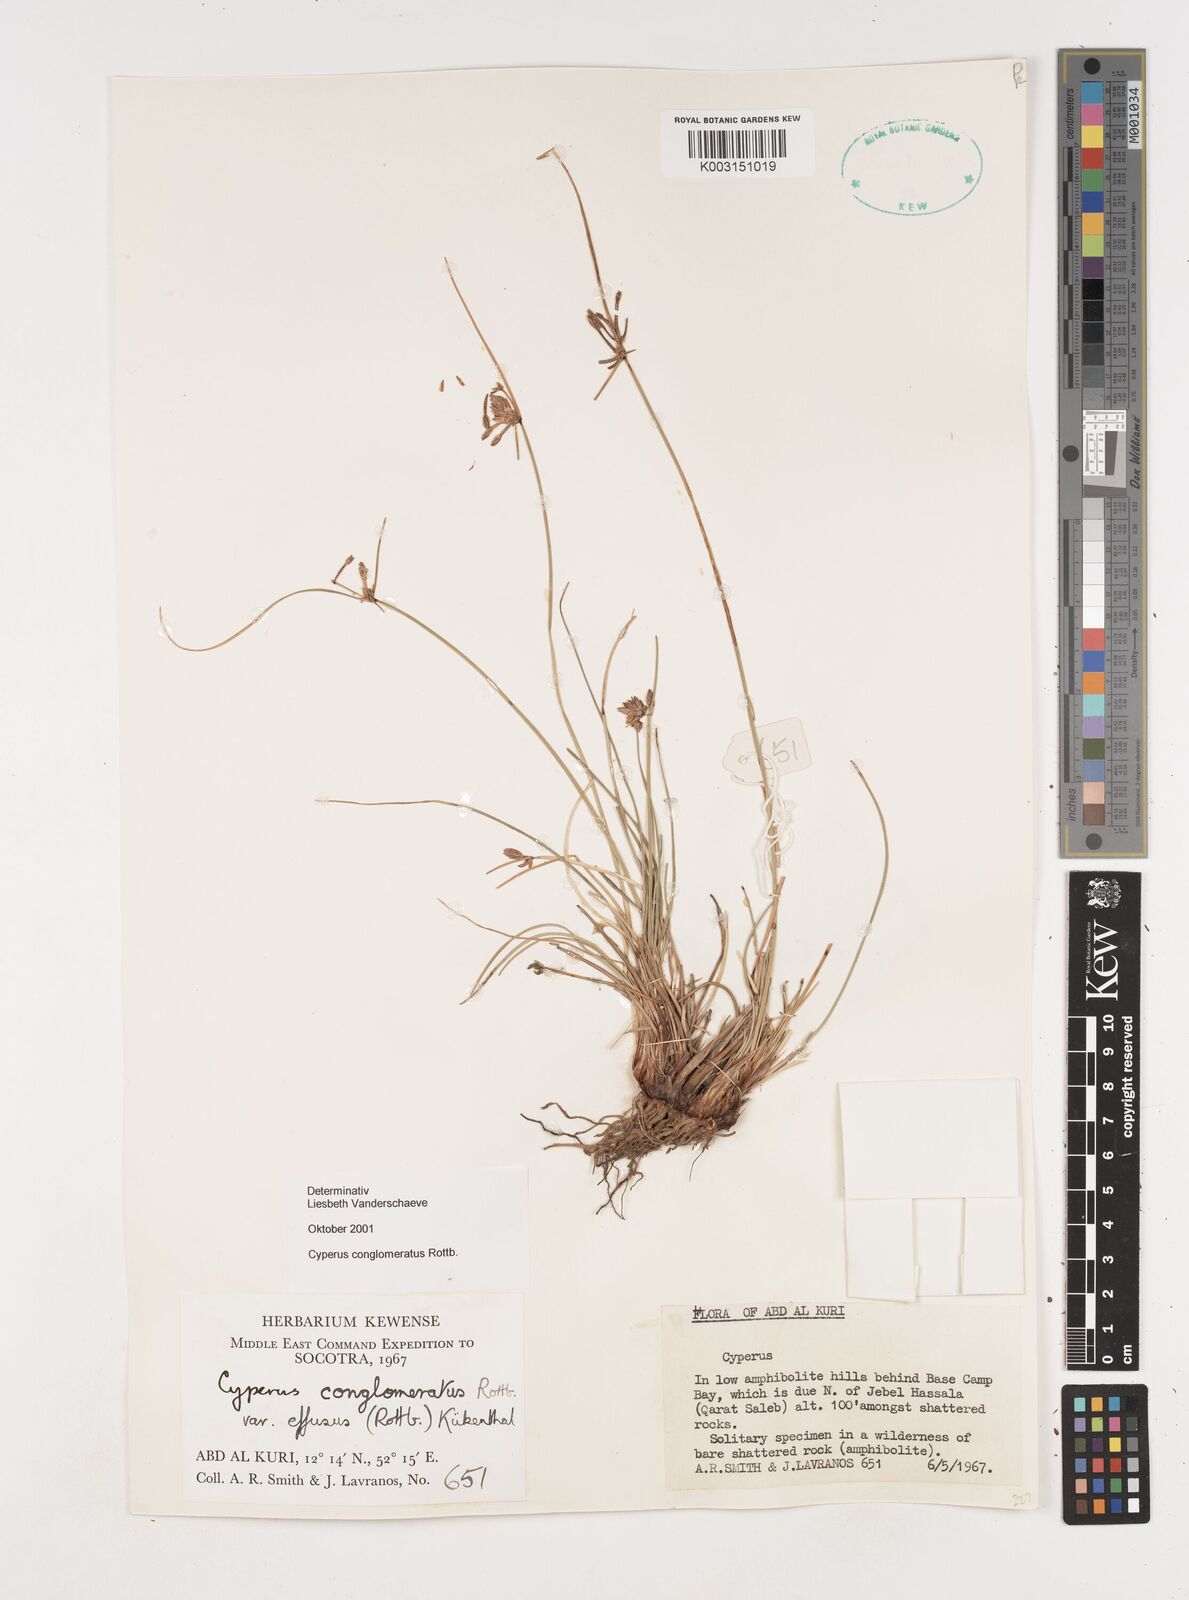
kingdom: Plantae
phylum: Tracheophyta
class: Liliopsida
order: Poales
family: Cyperaceae
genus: Cyperus
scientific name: Cyperus conglomeratus
